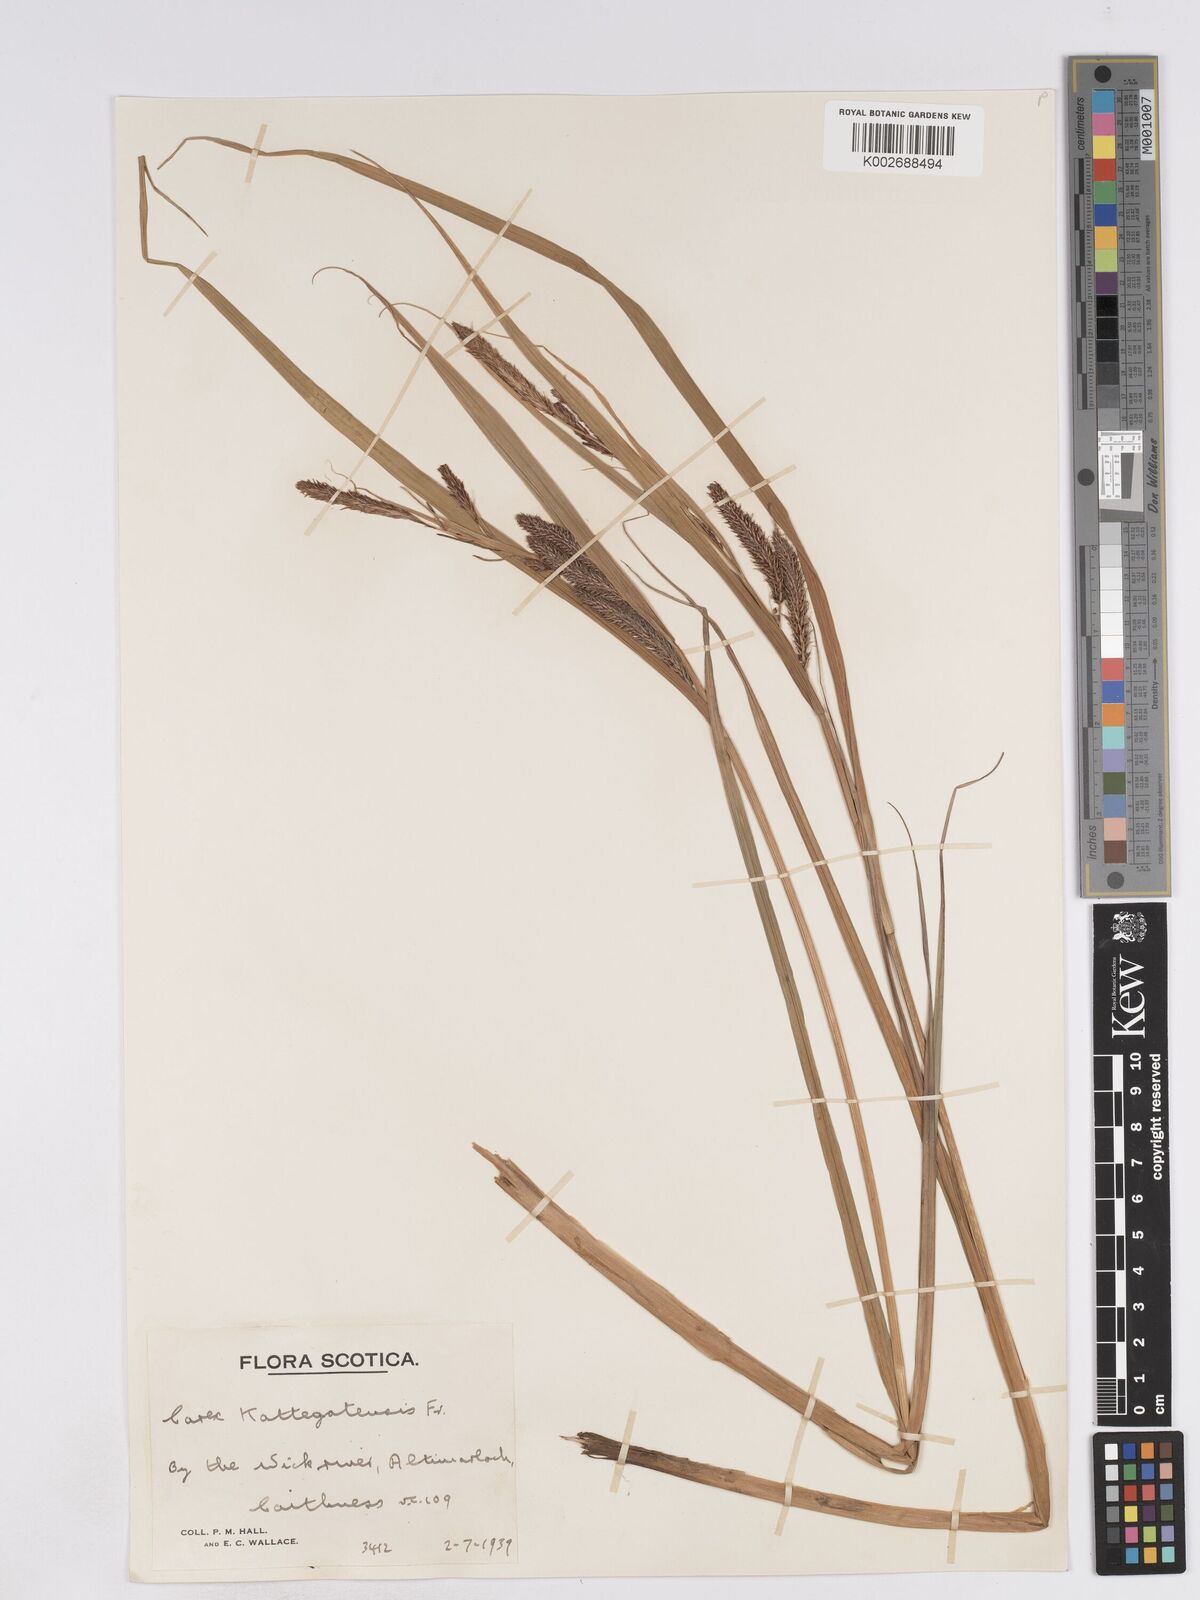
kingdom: Plantae
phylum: Tracheophyta
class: Liliopsida
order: Poales
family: Cyperaceae
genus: Carex
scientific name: Carex recta
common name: Estuarine sedge
